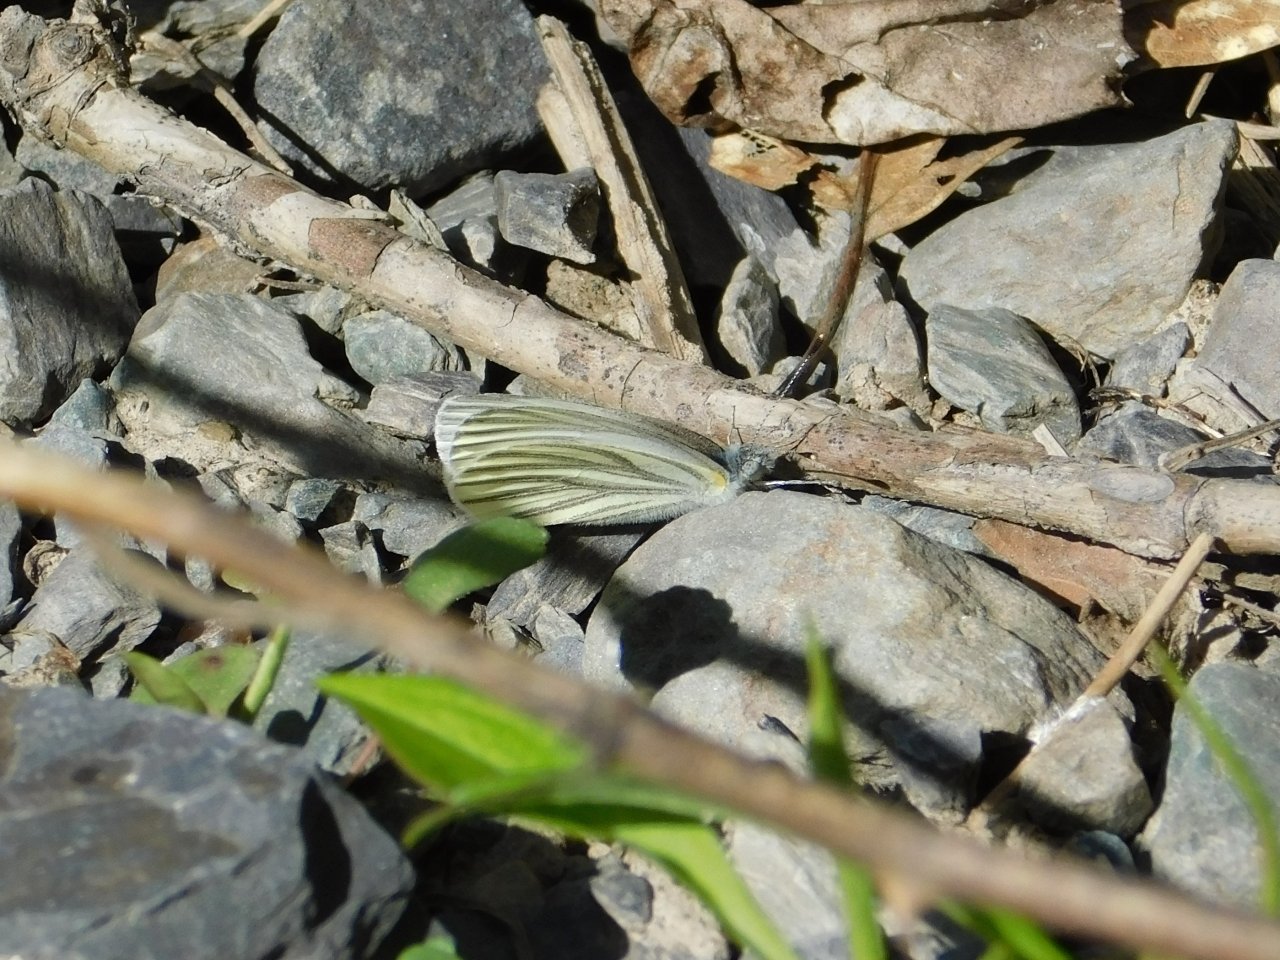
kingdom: Animalia
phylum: Arthropoda
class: Insecta
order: Lepidoptera
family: Pieridae
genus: Pieris
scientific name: Pieris oleracea
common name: Mustard White
